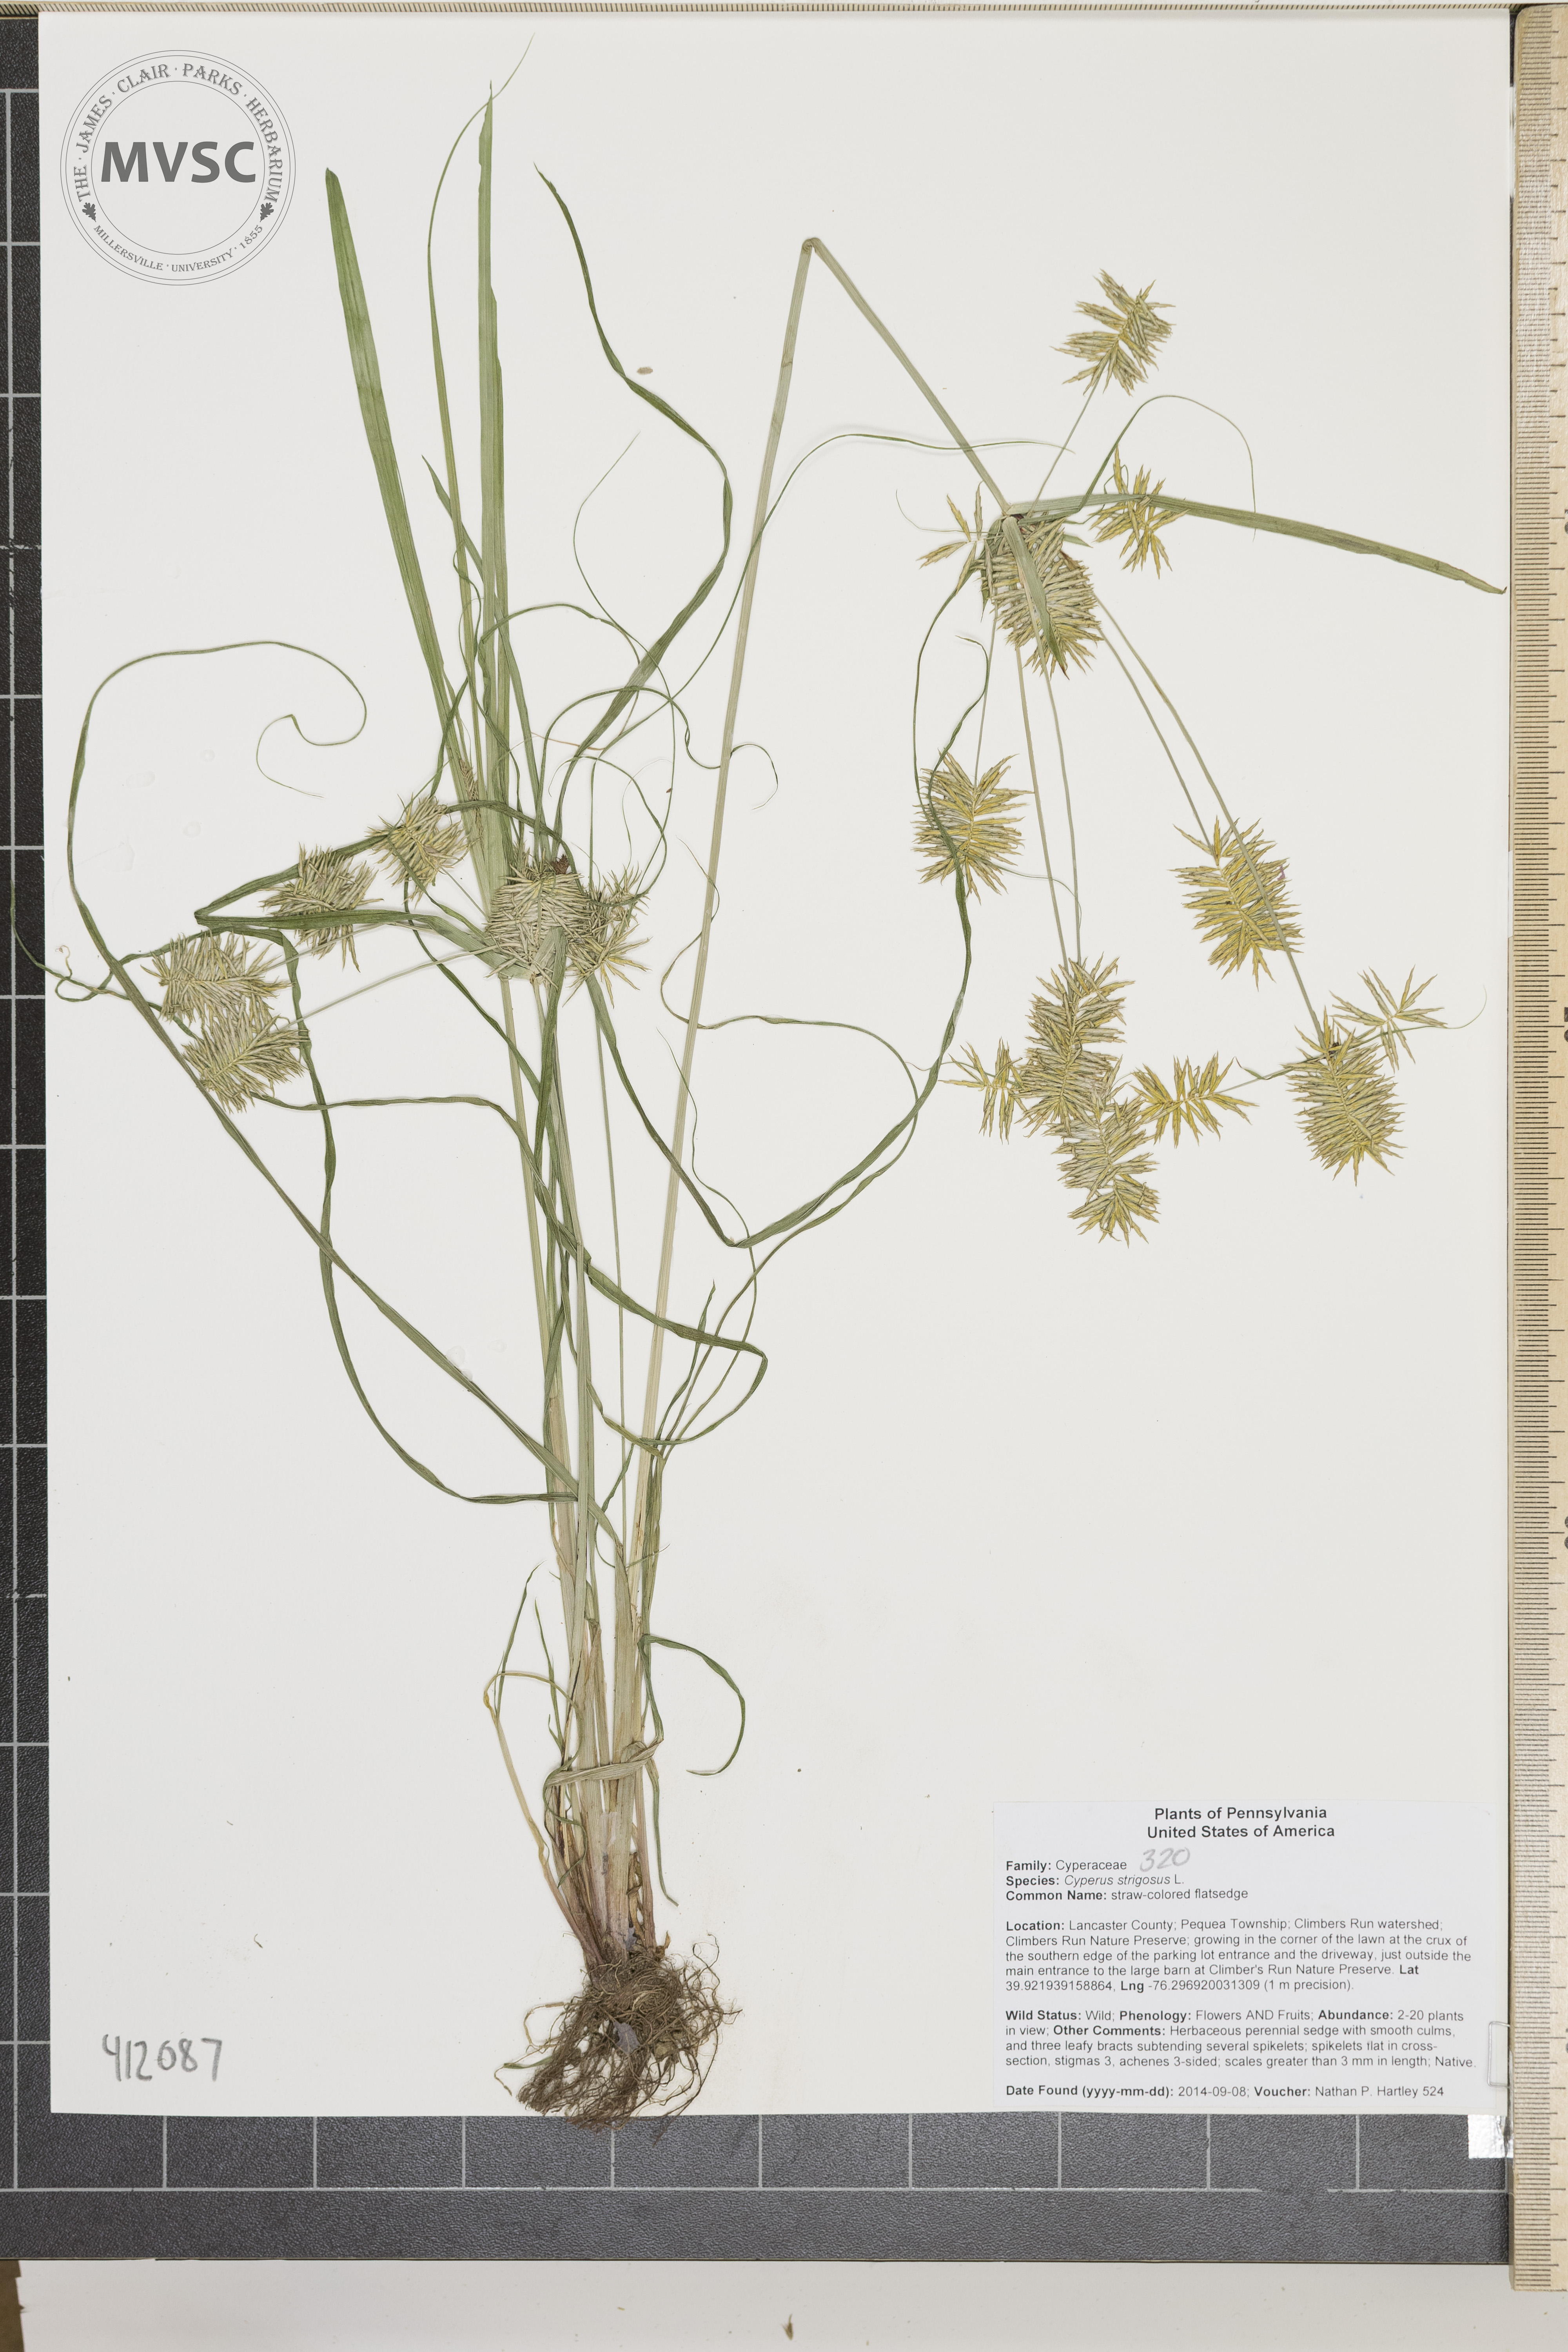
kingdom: Plantae
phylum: Tracheophyta
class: Liliopsida
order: Poales
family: Cyperaceae
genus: Cyperus
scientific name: Cyperus strigosus
